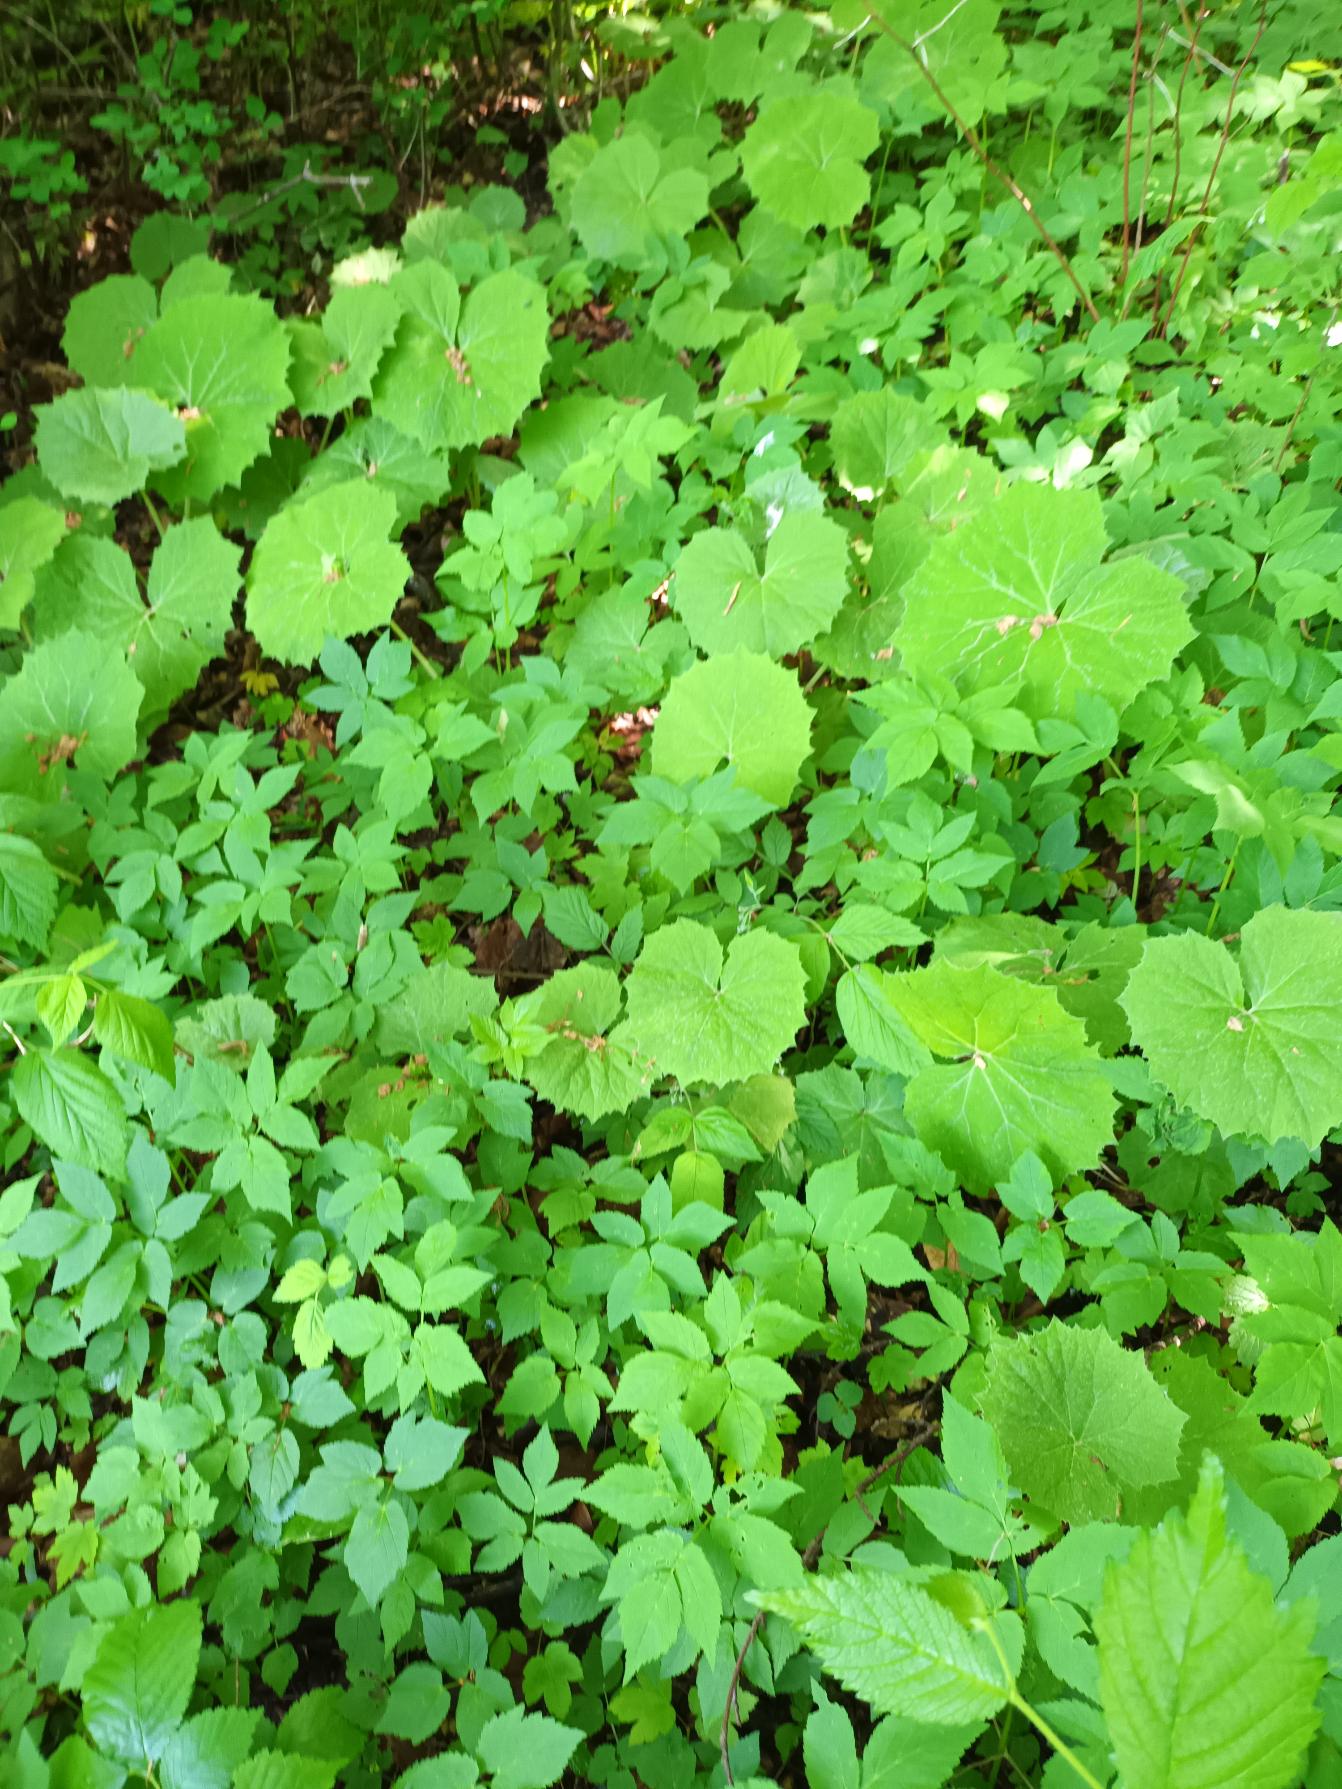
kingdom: Plantae
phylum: Tracheophyta
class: Magnoliopsida
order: Asterales
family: Asteraceae
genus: Petasites
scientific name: Petasites albus
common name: Hvid hestehov
